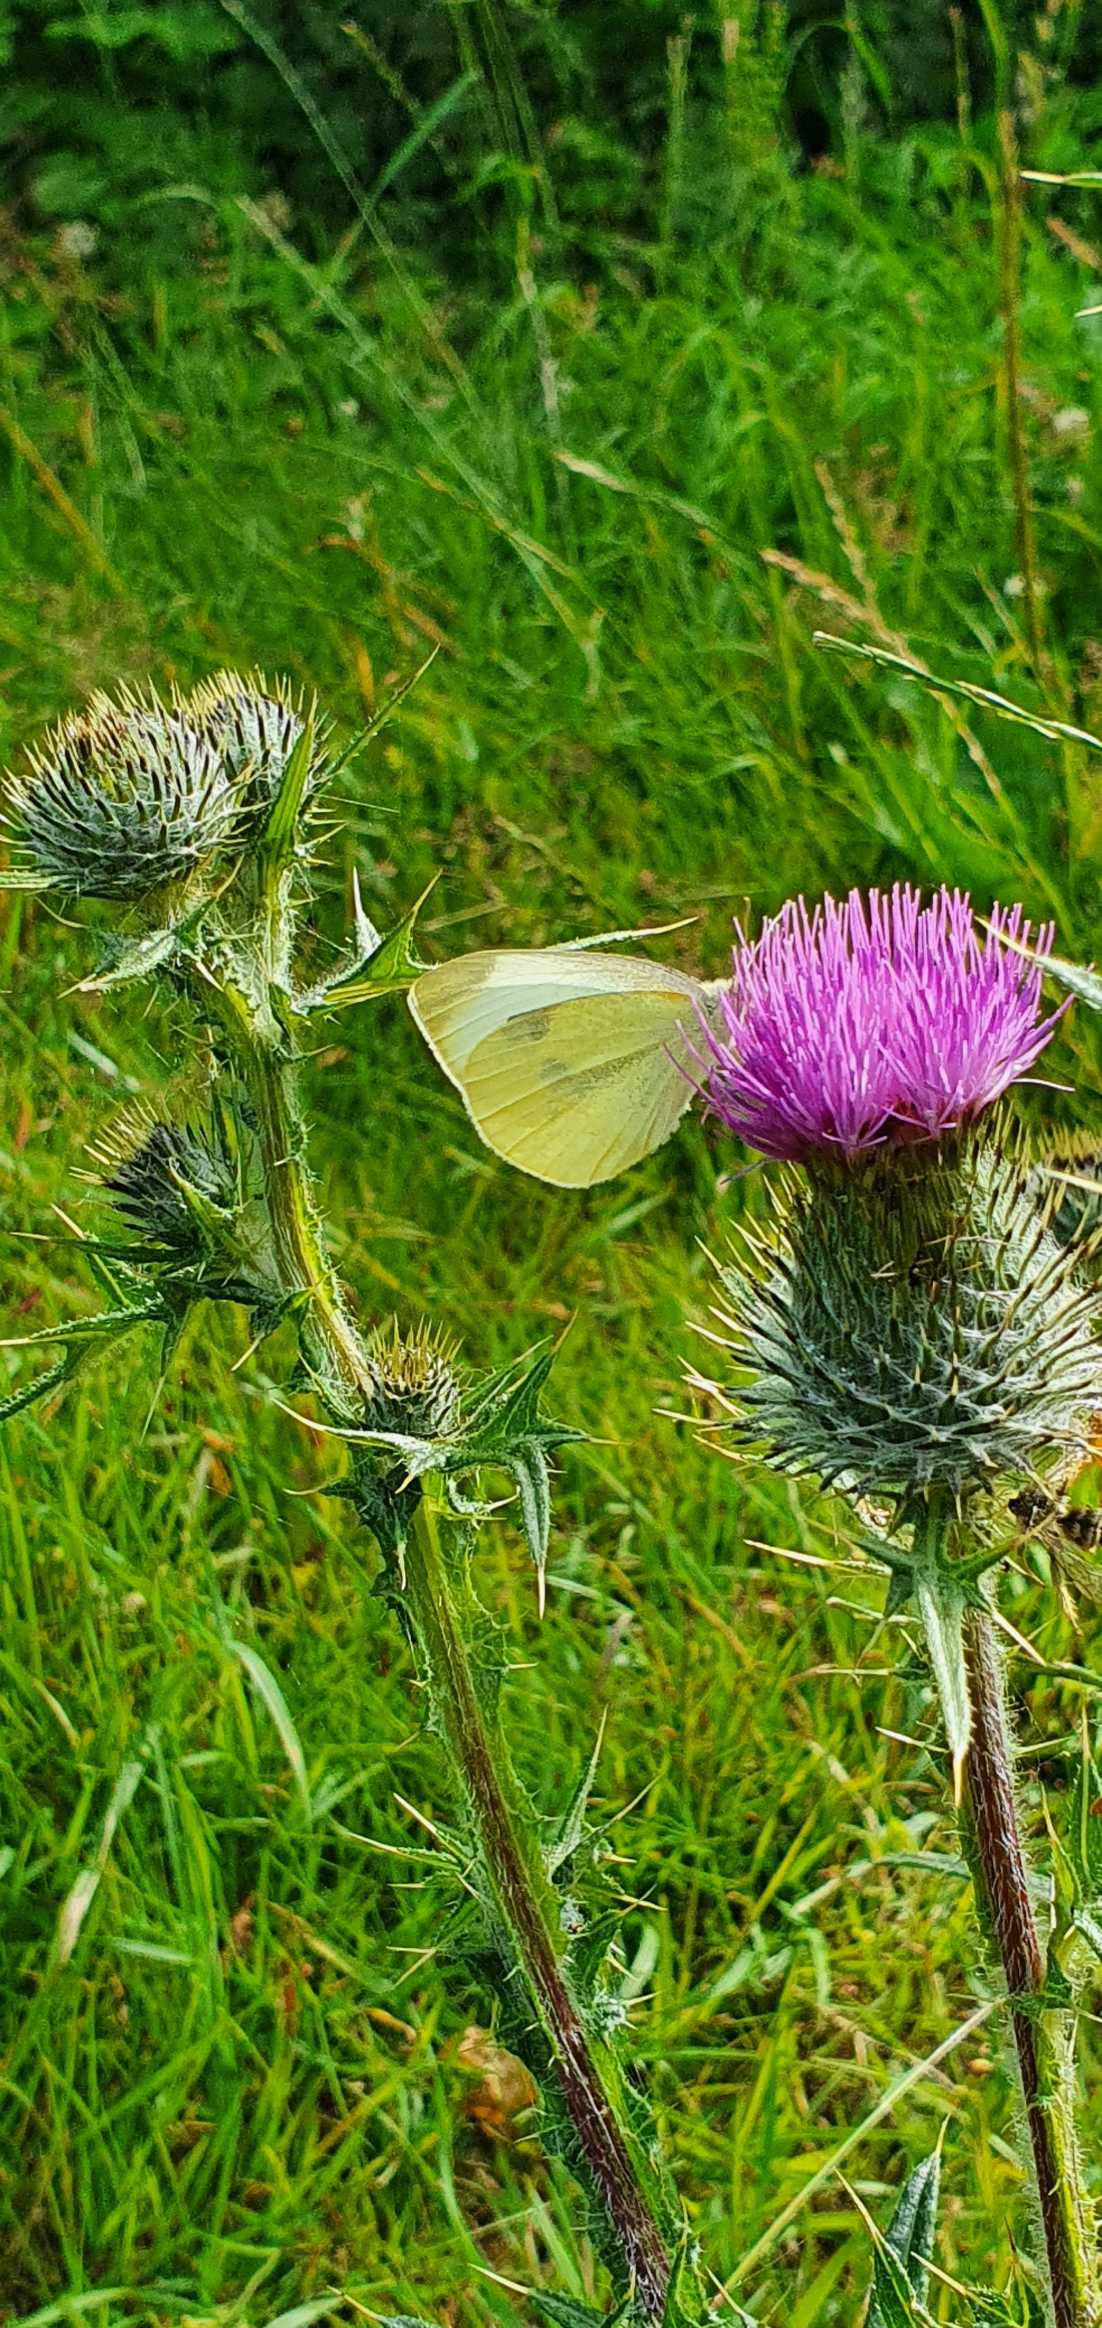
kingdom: Animalia
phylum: Arthropoda
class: Insecta
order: Lepidoptera
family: Pieridae
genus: Pieris
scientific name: Pieris rapae
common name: Lille kålsommerfugl
